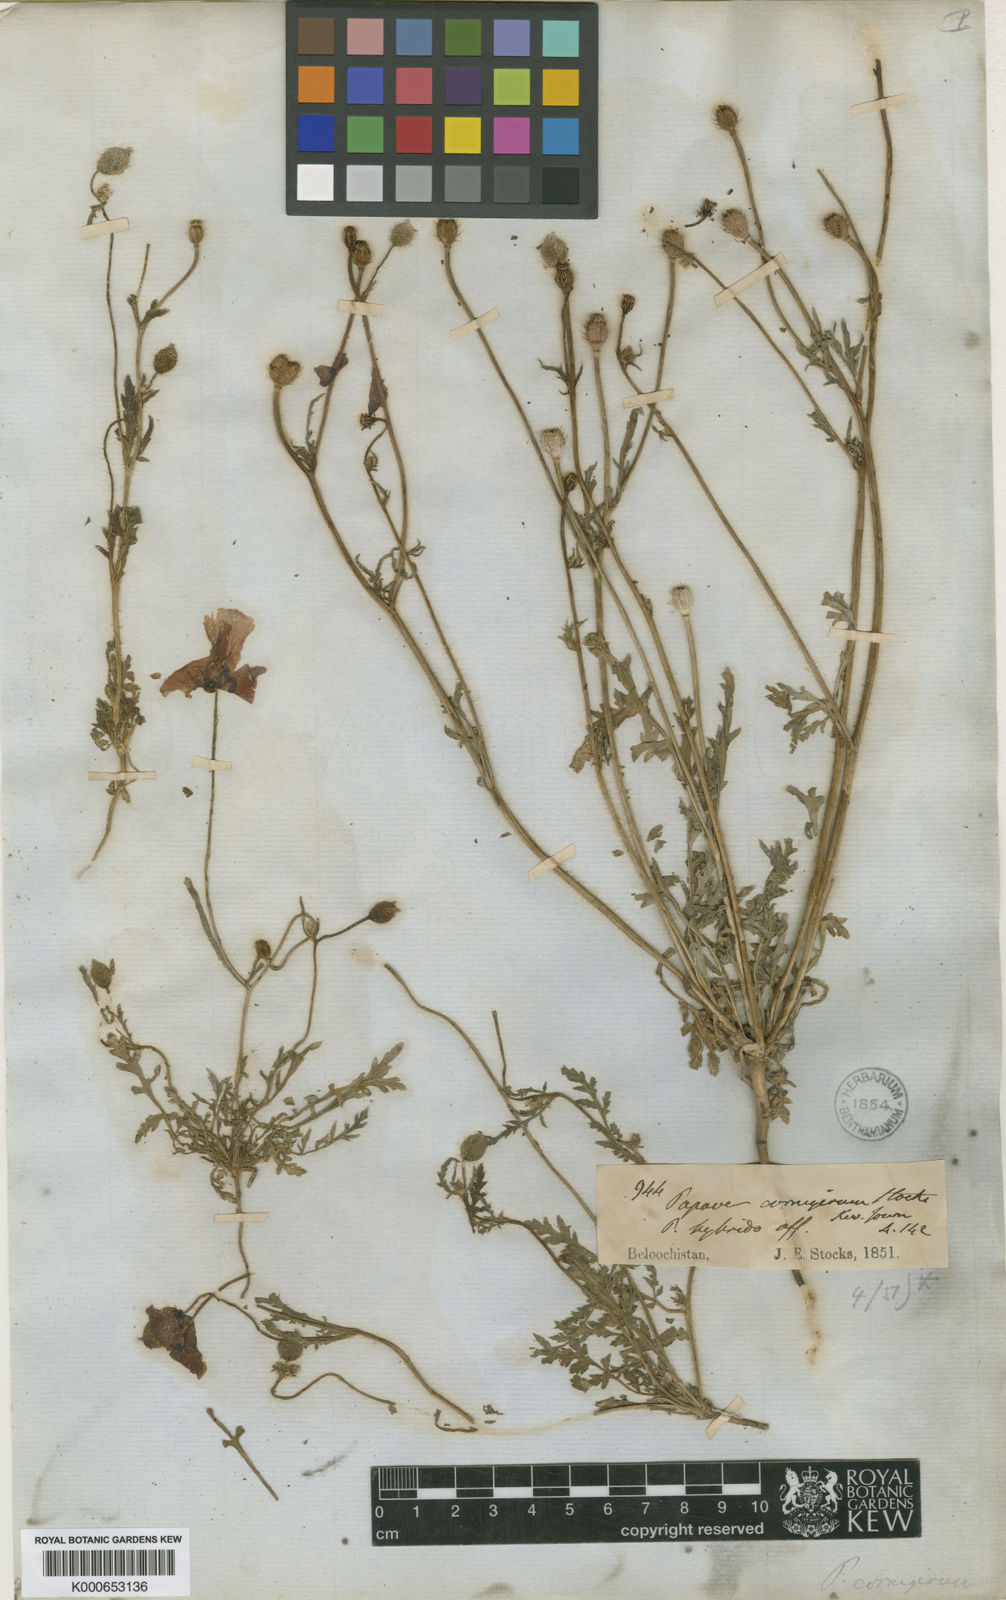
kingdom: Plantae
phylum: Tracheophyta
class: Magnoliopsida
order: Ranunculales
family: Papaveraceae
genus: Papaver
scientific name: Papaver pavoninum
